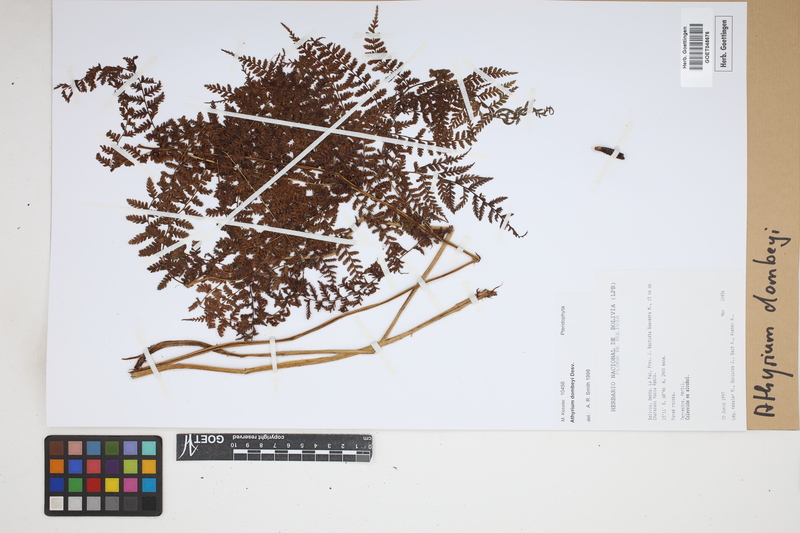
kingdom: Plantae
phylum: Tracheophyta
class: Polypodiopsida
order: Polypodiales
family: Athyriaceae
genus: Athyrium
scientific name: Athyrium dombeyi
